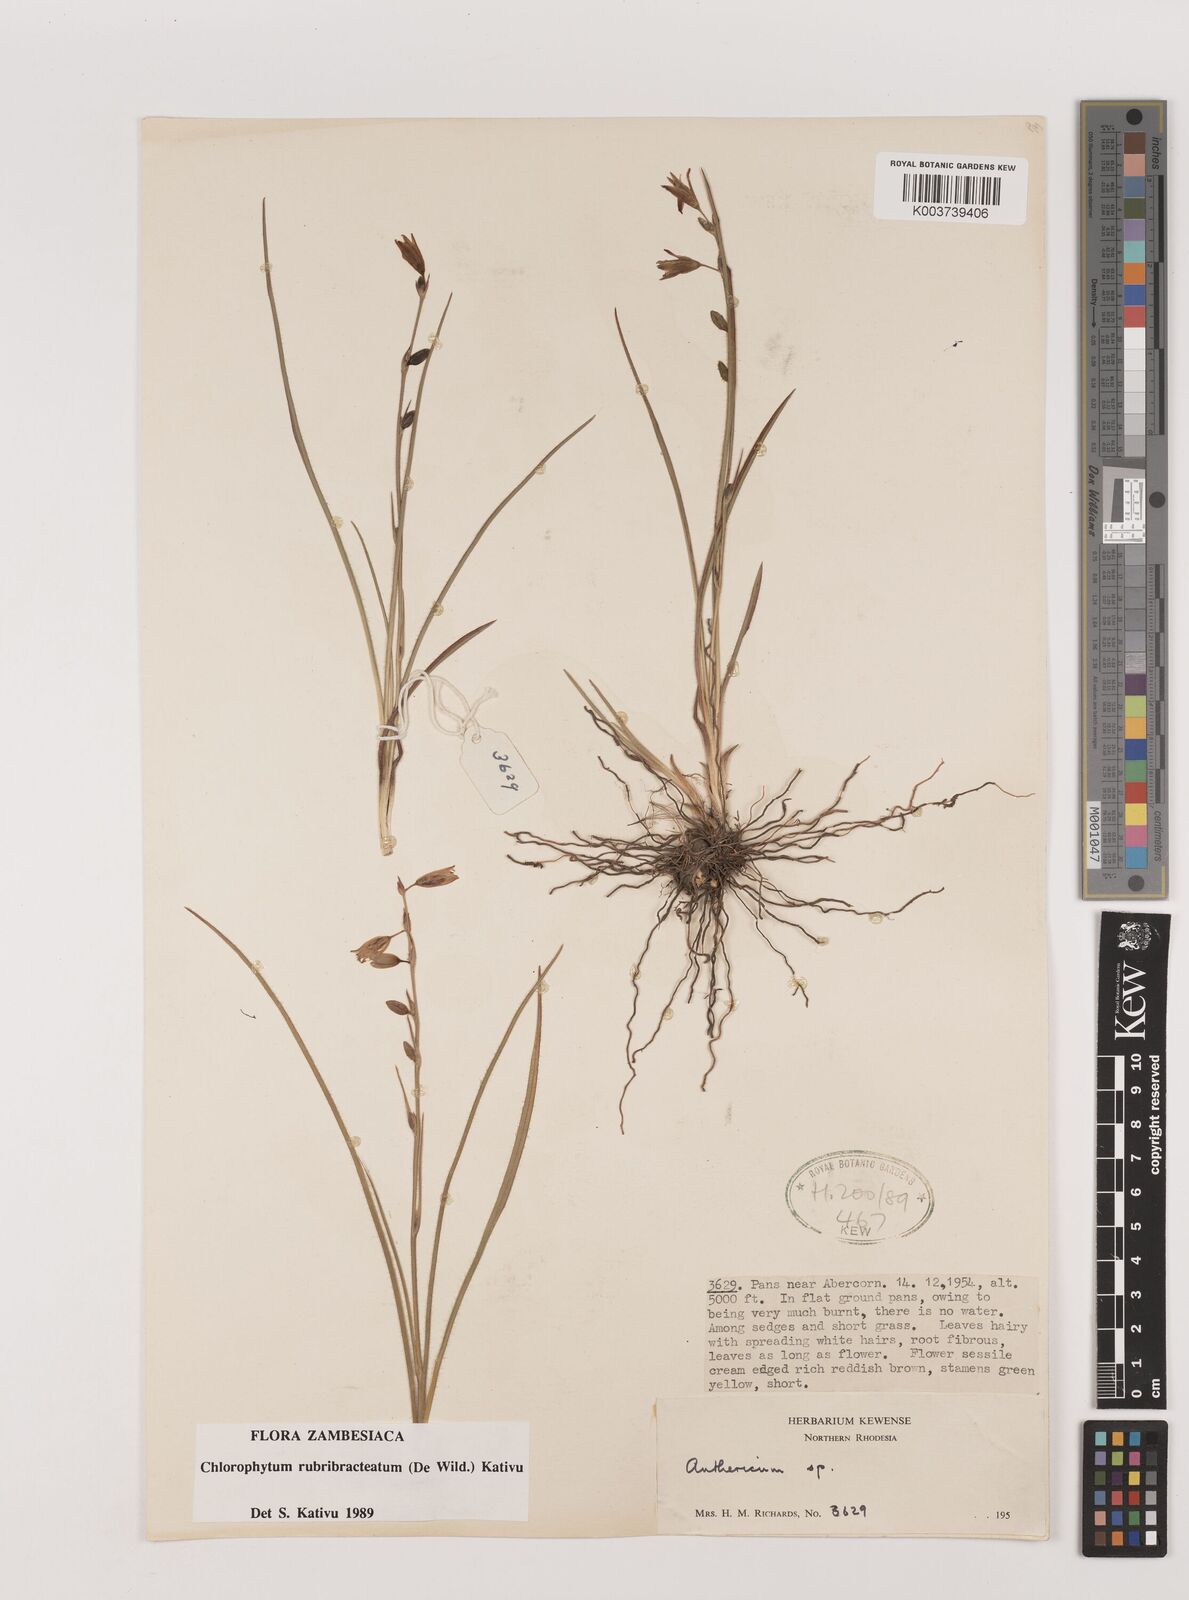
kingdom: Plantae
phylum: Tracheophyta
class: Liliopsida
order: Asparagales
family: Asparagaceae
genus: Chlorophytum
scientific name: Chlorophytum rubribracteatum
